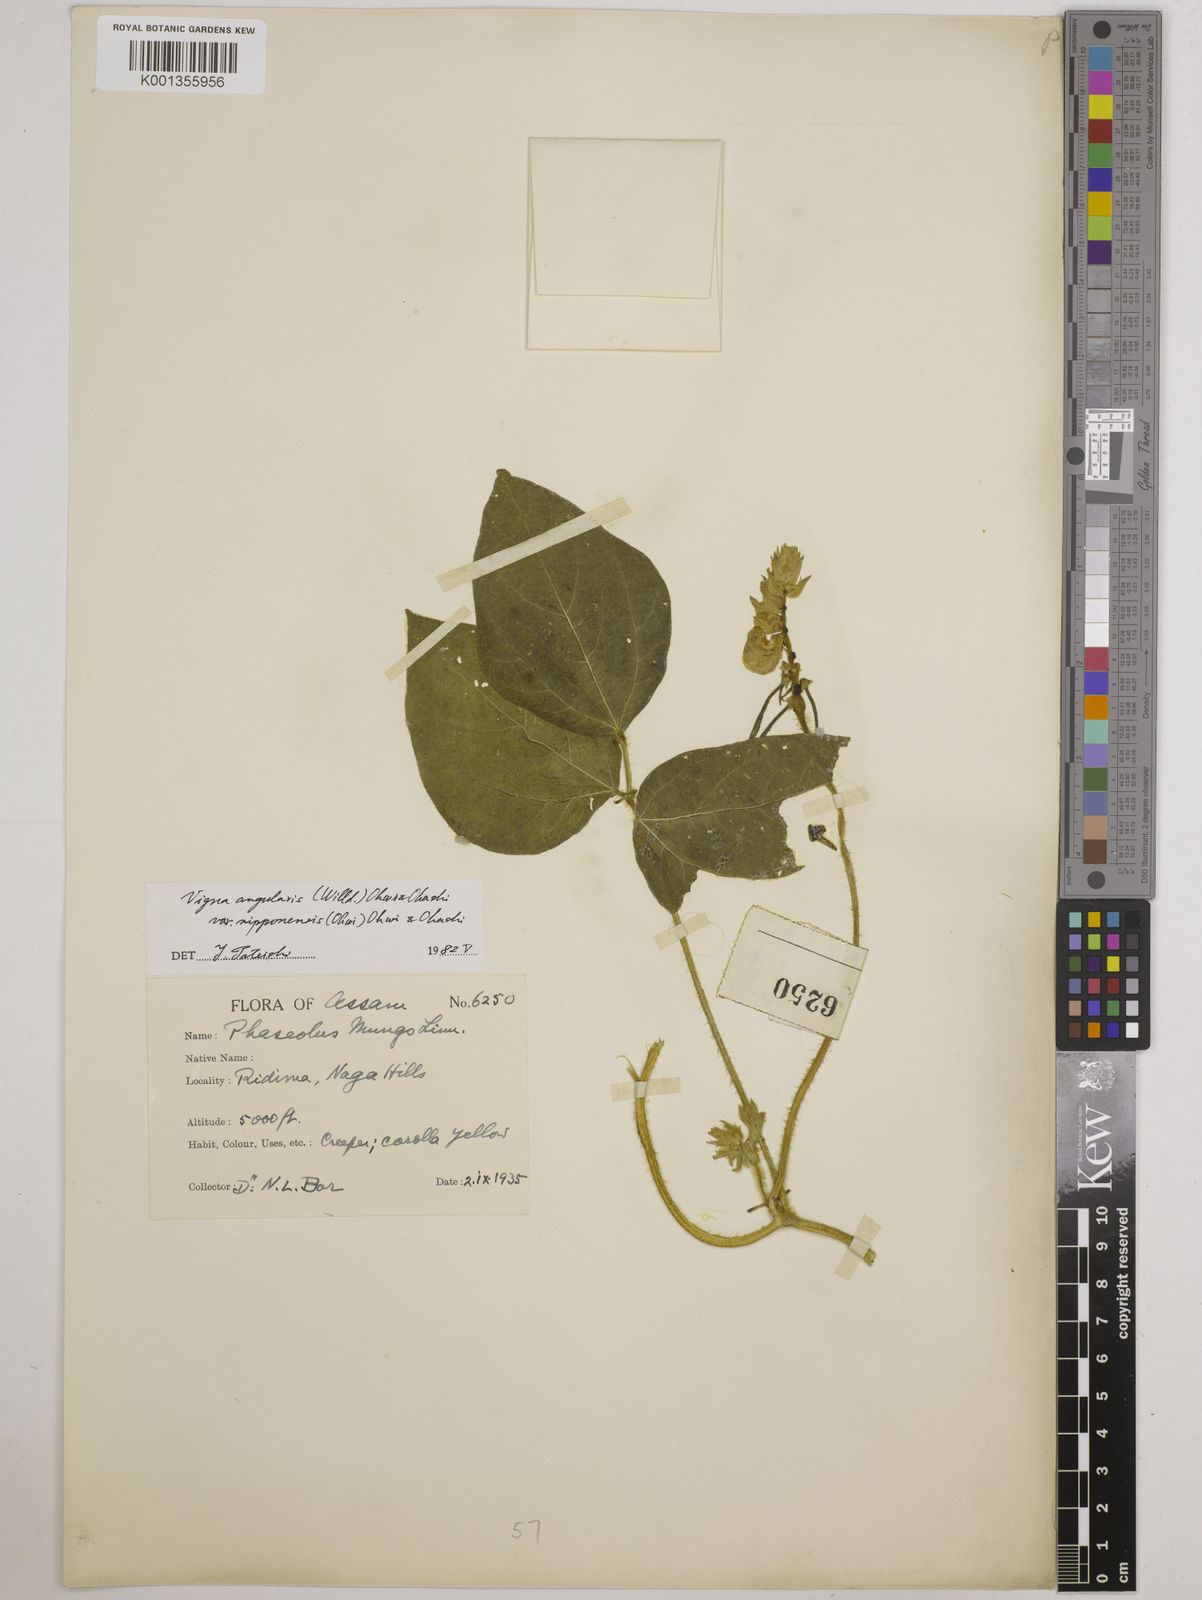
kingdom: Plantae
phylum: Tracheophyta
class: Magnoliopsida
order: Fabales
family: Fabaceae
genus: Vigna
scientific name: Vigna
